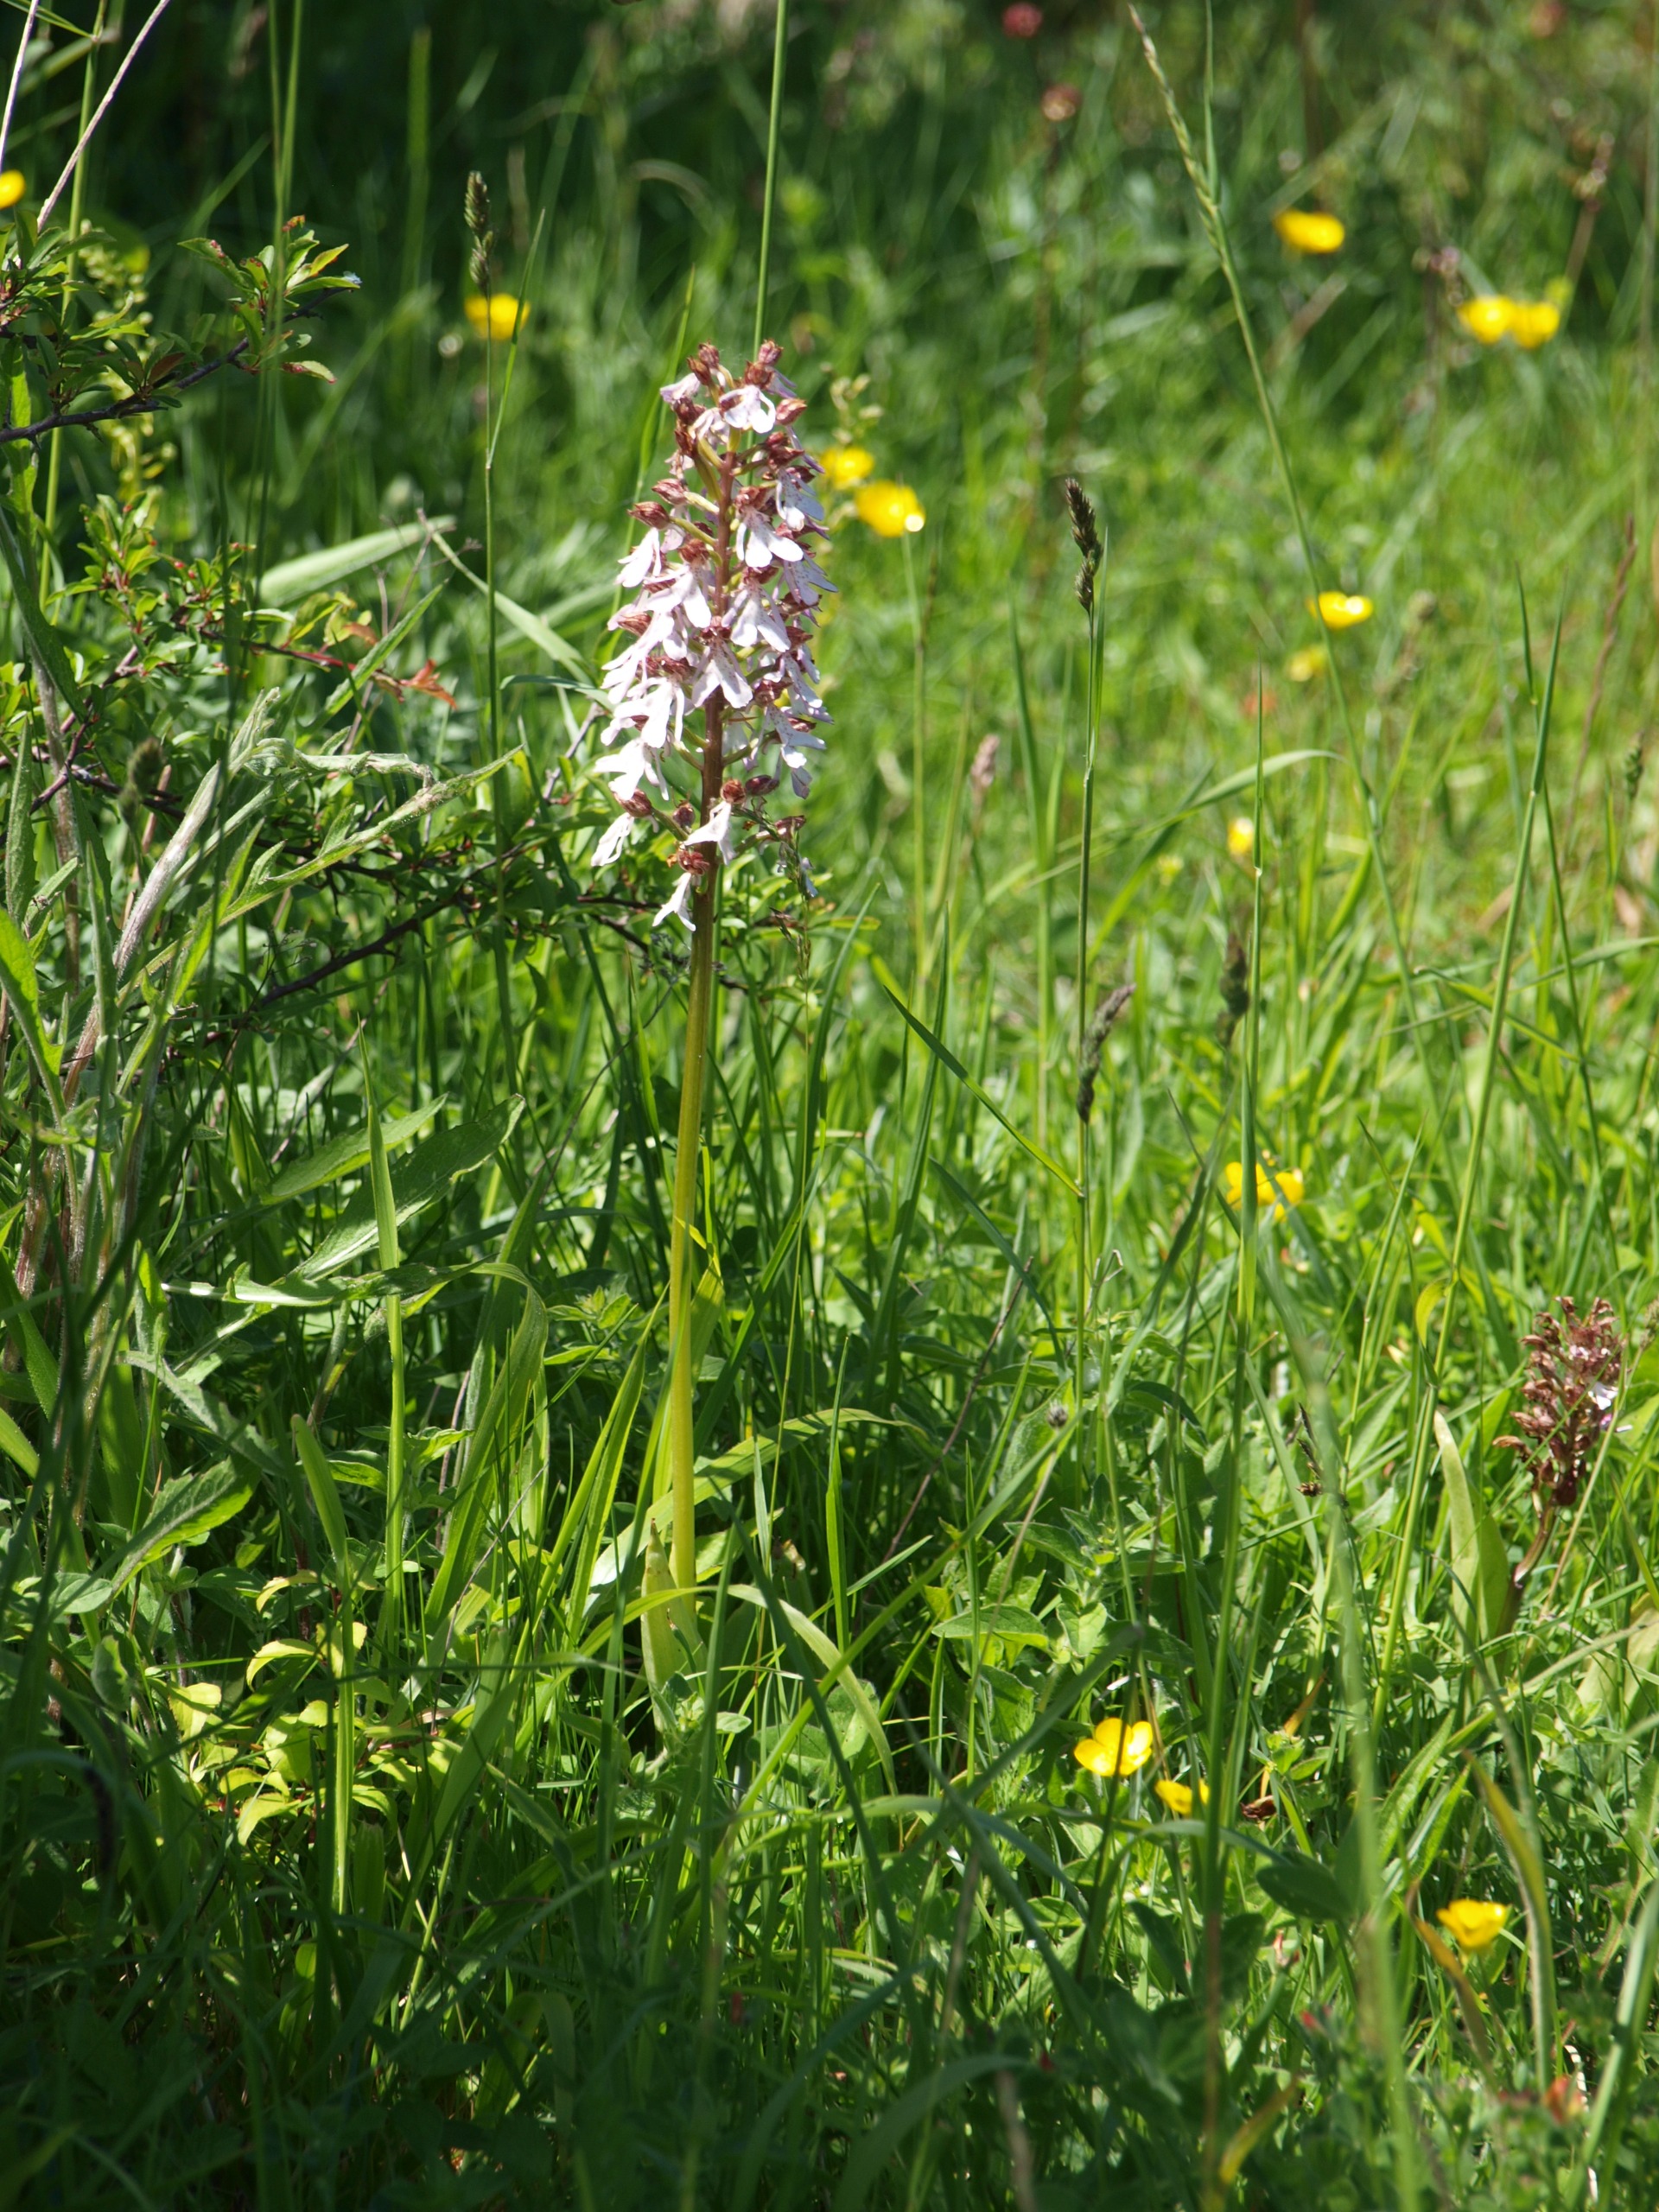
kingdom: Plantae
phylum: Tracheophyta
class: Liliopsida
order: Asparagales
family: Orchidaceae
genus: Orchis
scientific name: Orchis purpurea
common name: Stor gøgeurt
